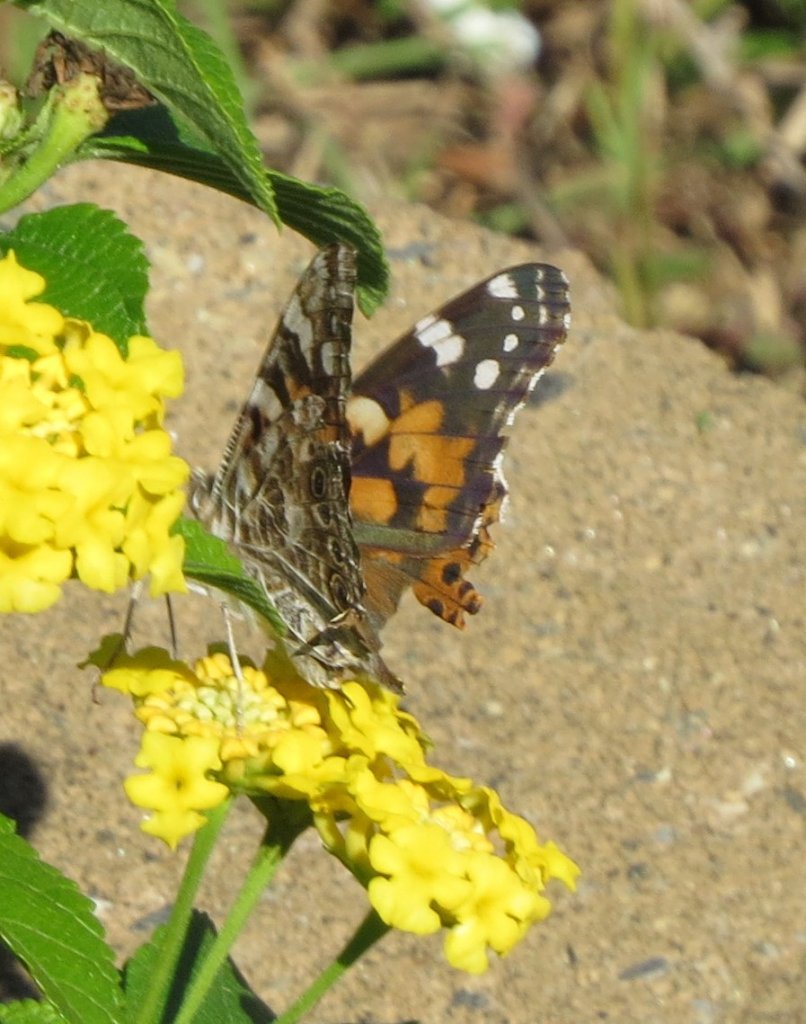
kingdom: Animalia
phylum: Arthropoda
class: Insecta
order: Lepidoptera
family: Nymphalidae
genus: Vanessa
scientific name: Vanessa cardui
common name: Painted Lady
